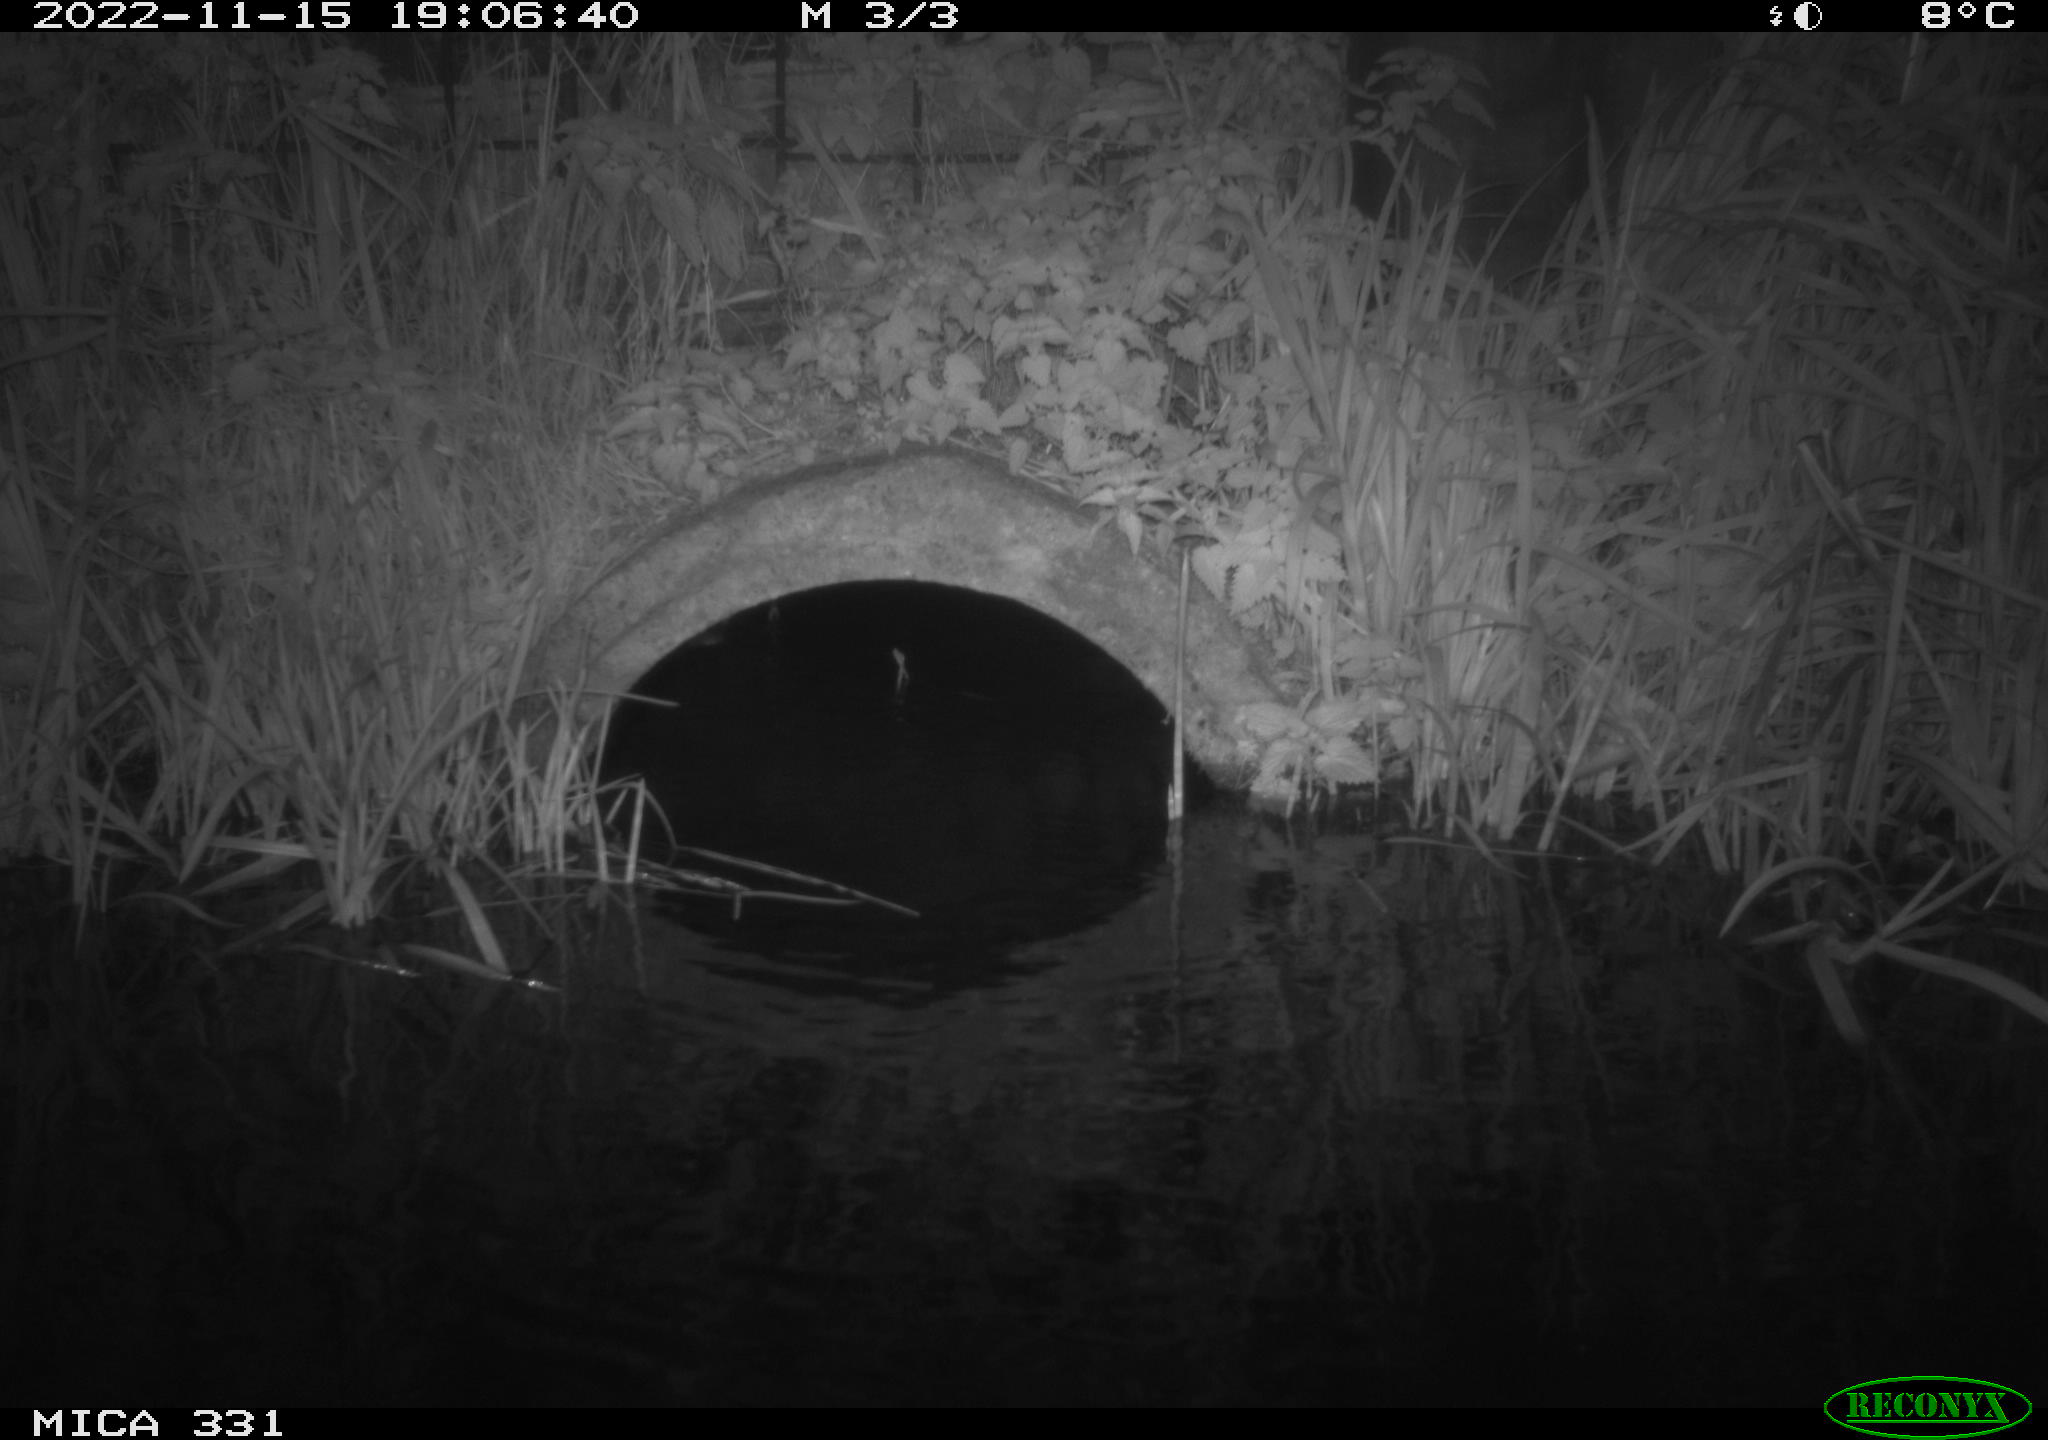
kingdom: Animalia
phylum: Chordata
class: Mammalia
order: Rodentia
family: Muridae
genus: Rattus
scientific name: Rattus norvegicus
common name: Brown rat
